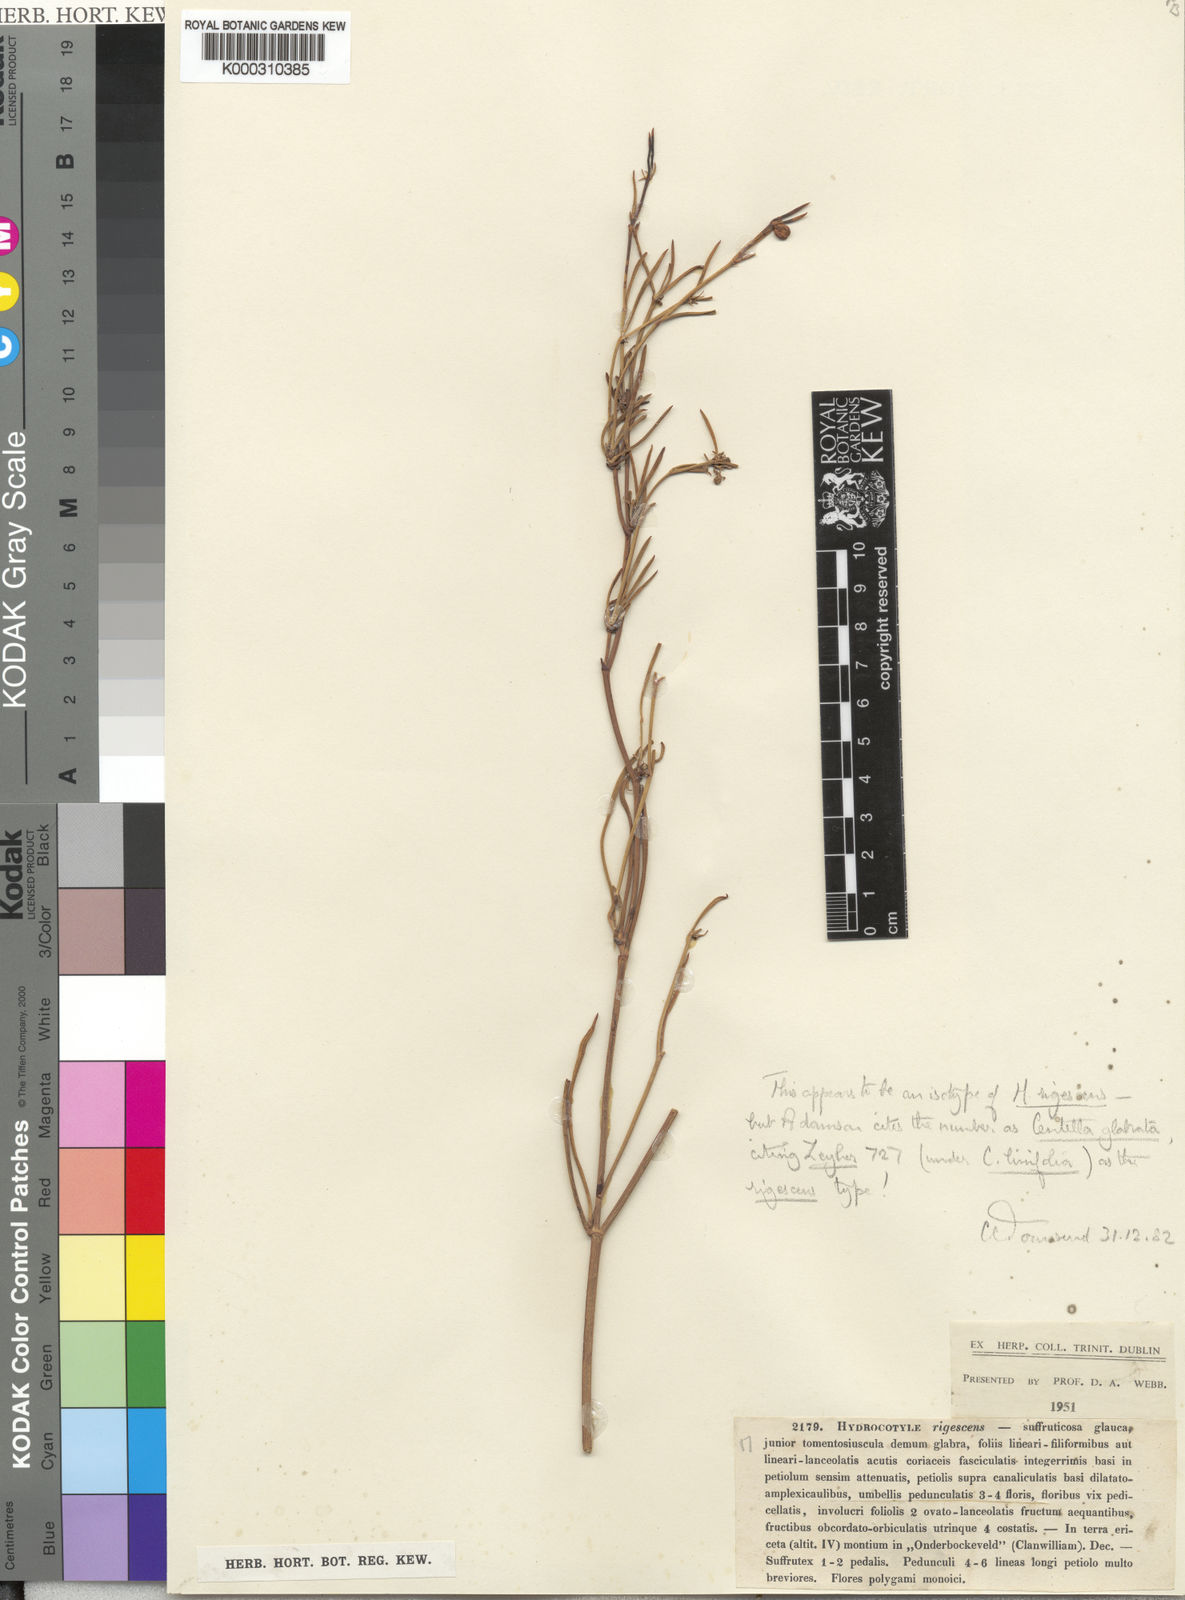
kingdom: Plantae
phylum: Tracheophyta
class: Magnoliopsida
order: Apiales
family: Apiaceae
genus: Centella
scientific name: Centella
